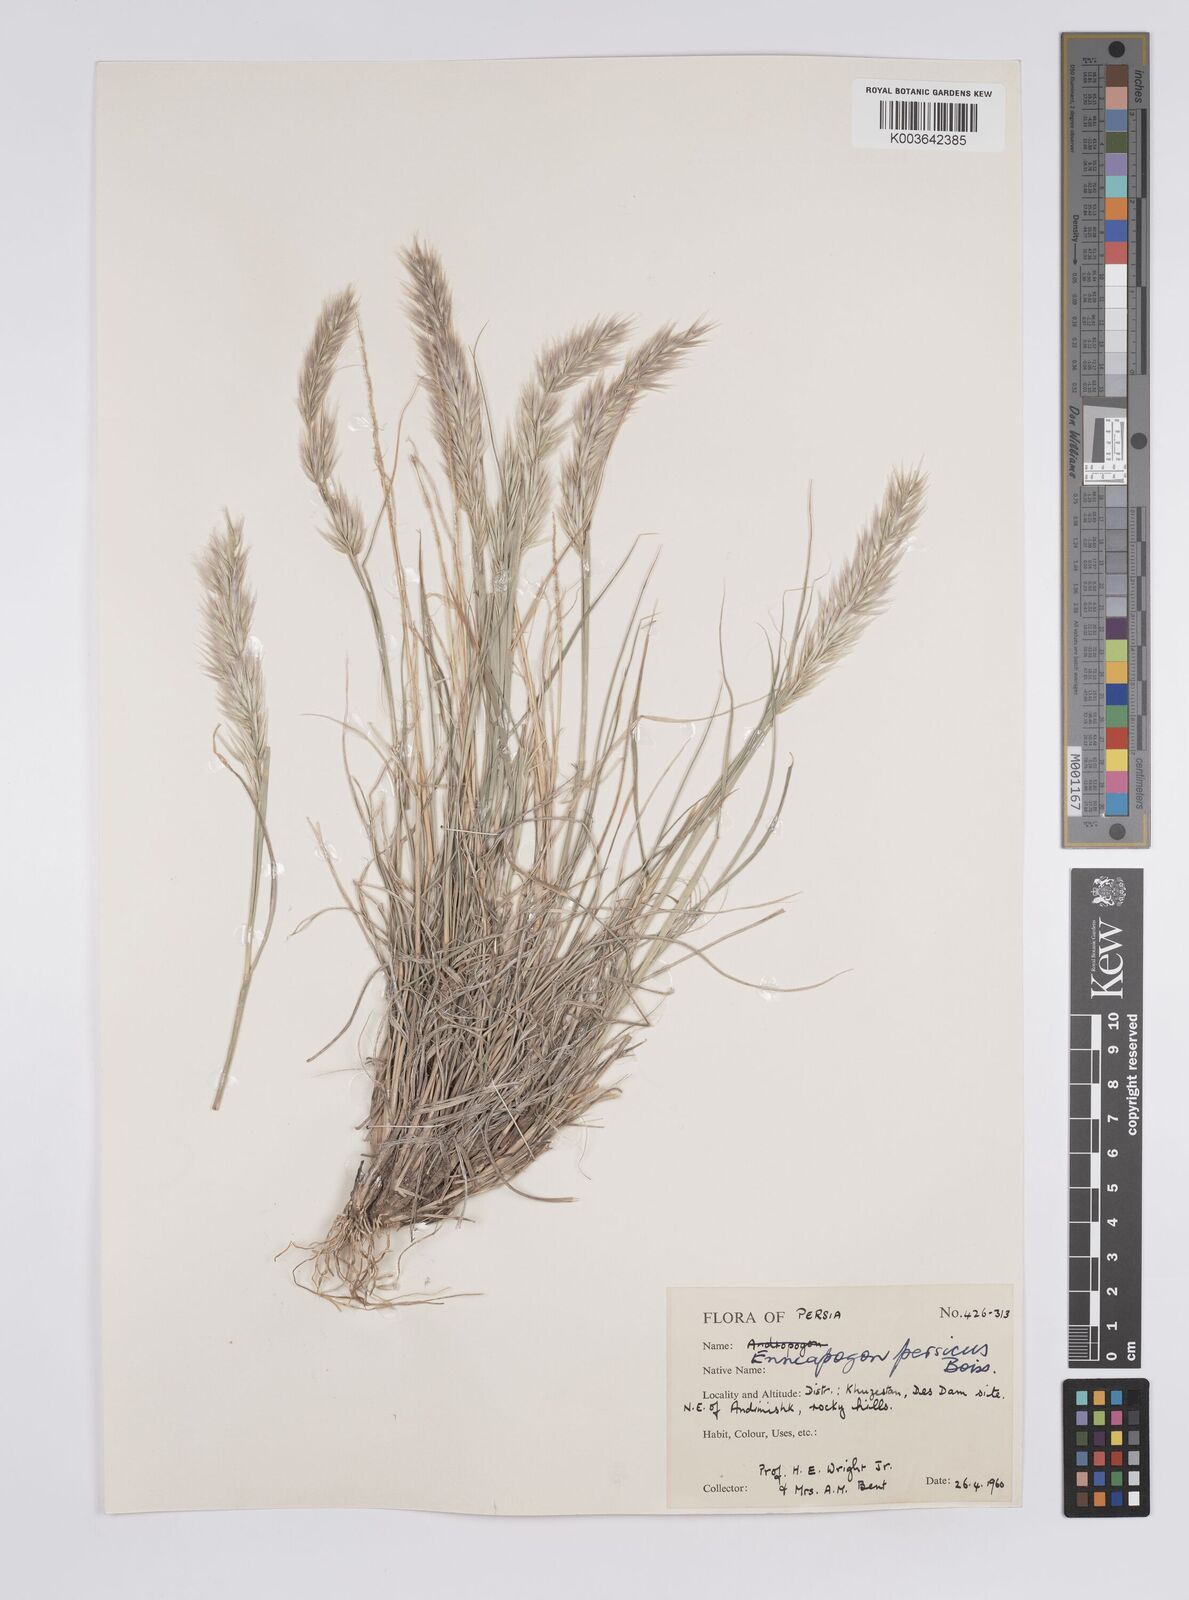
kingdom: Plantae
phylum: Tracheophyta
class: Liliopsida
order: Poales
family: Poaceae
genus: Enneapogon
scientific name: Enneapogon persicus
